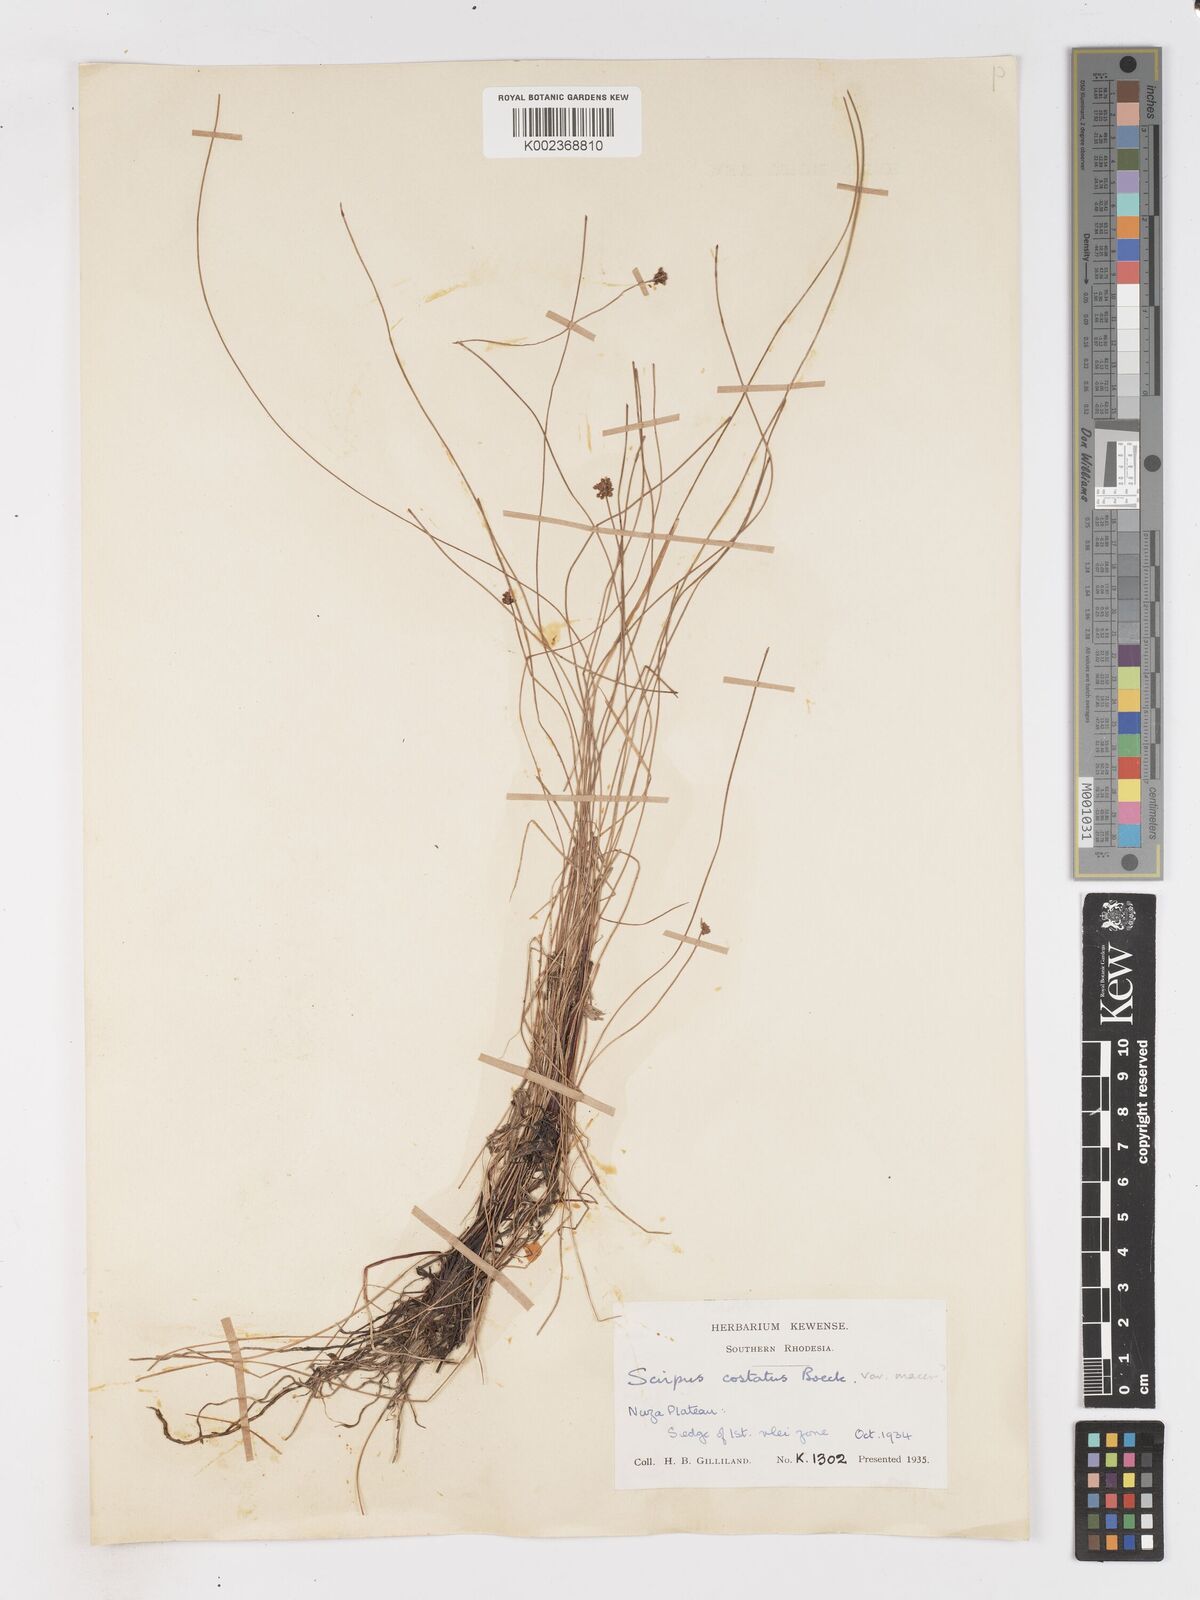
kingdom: Plantae
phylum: Tracheophyta
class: Liliopsida
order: Poales
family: Cyperaceae
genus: Isolepis
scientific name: Isolepis costata
